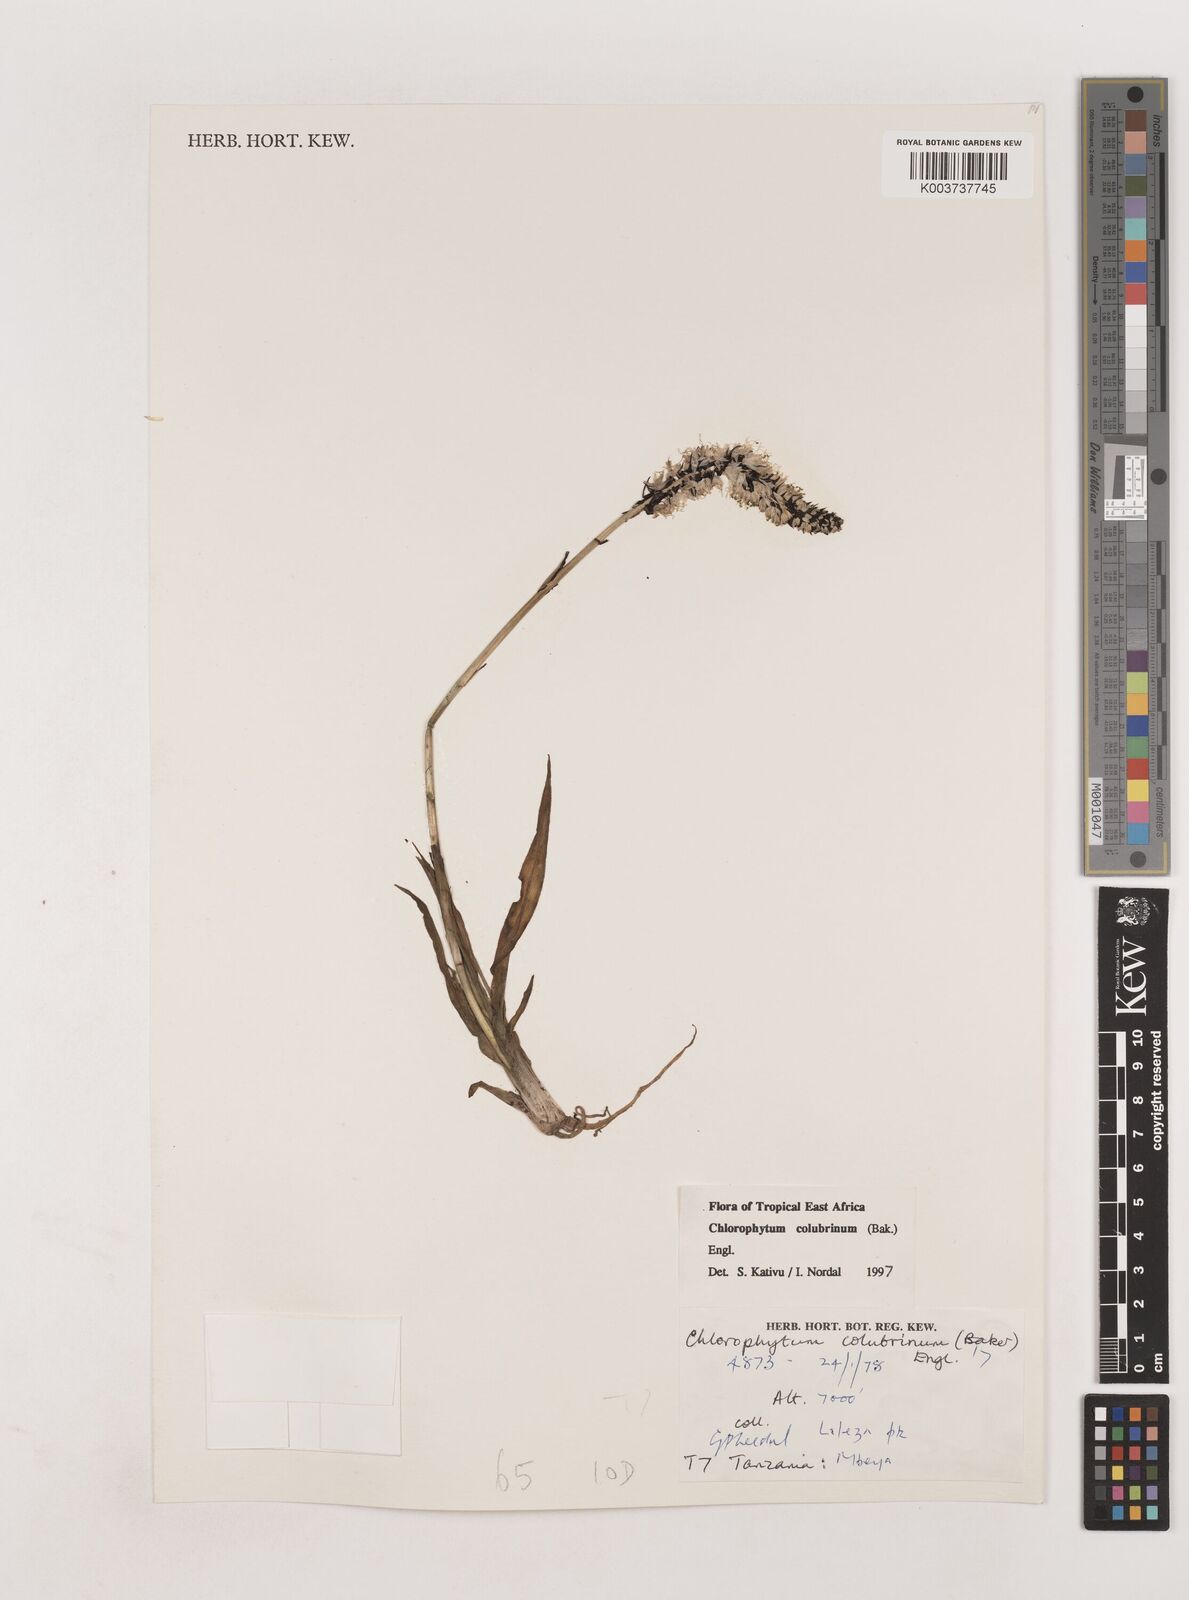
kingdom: Plantae
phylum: Tracheophyta
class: Liliopsida
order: Asparagales
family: Asparagaceae
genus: Chlorophytum
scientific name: Chlorophytum colubrinum
